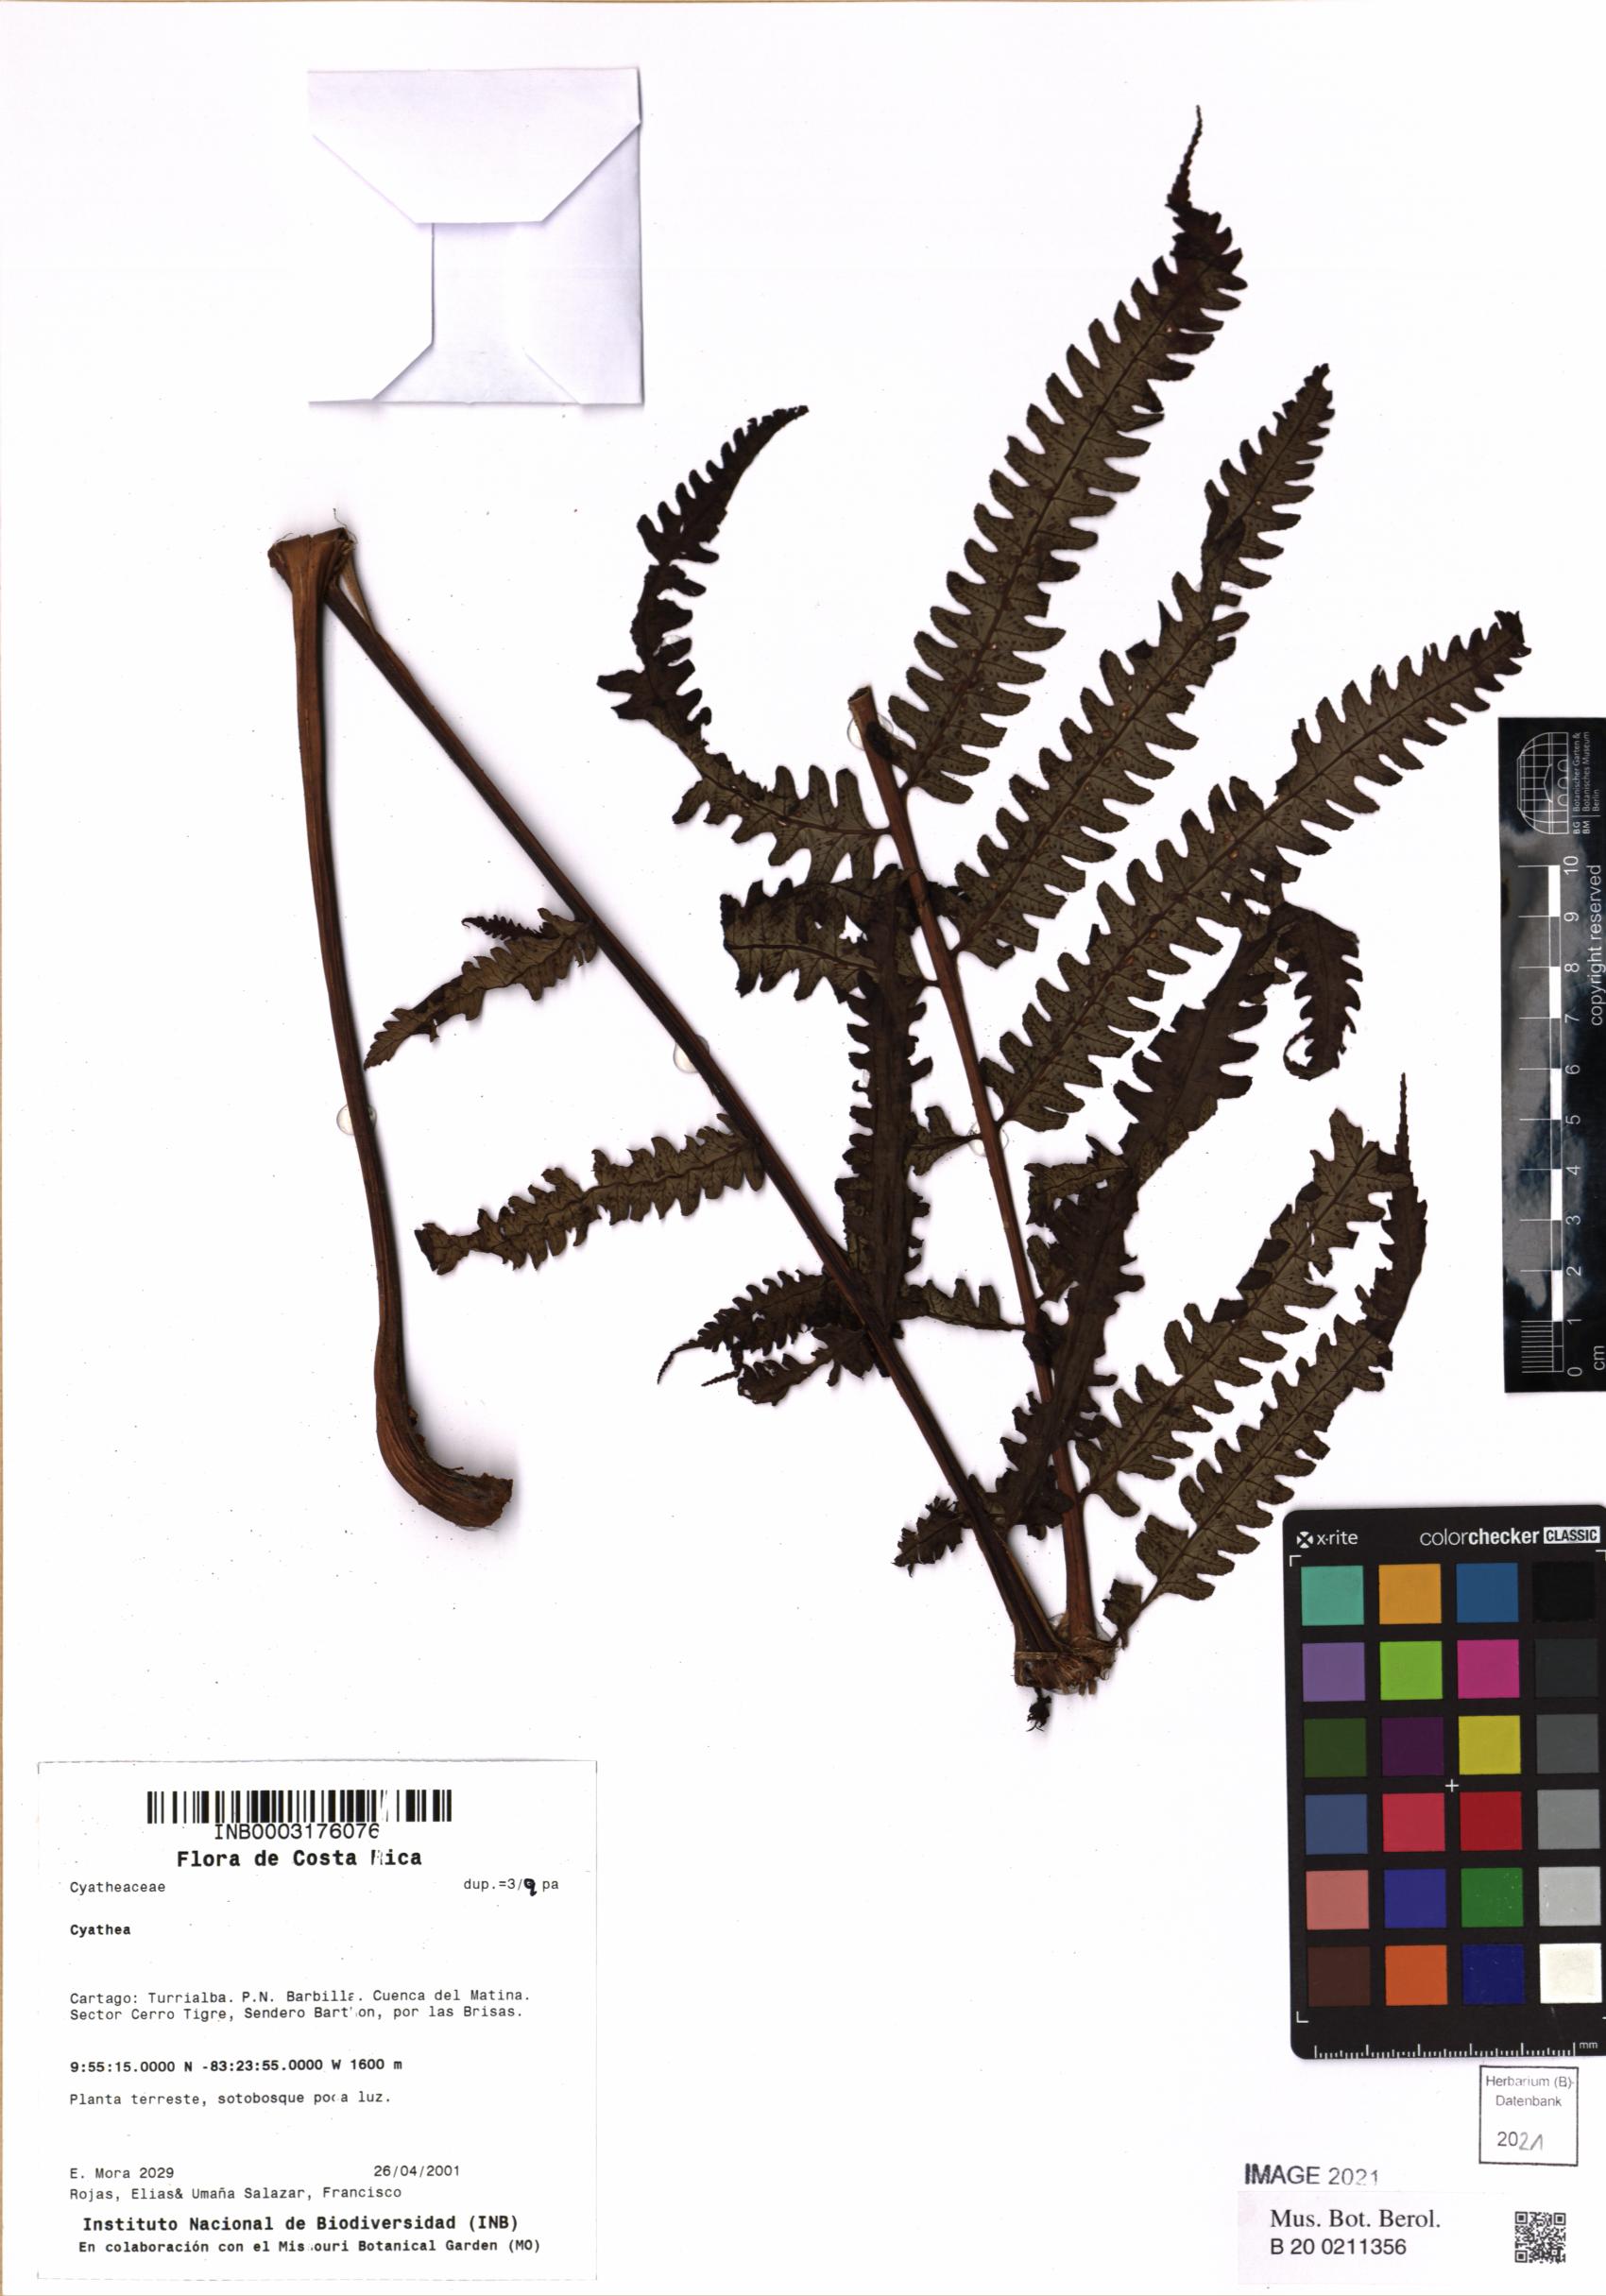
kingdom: Plantae
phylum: Tracheophyta
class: Polypodiopsida
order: Cyatheales
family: Cyatheaceae
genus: Cyathea
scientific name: Cyathea
